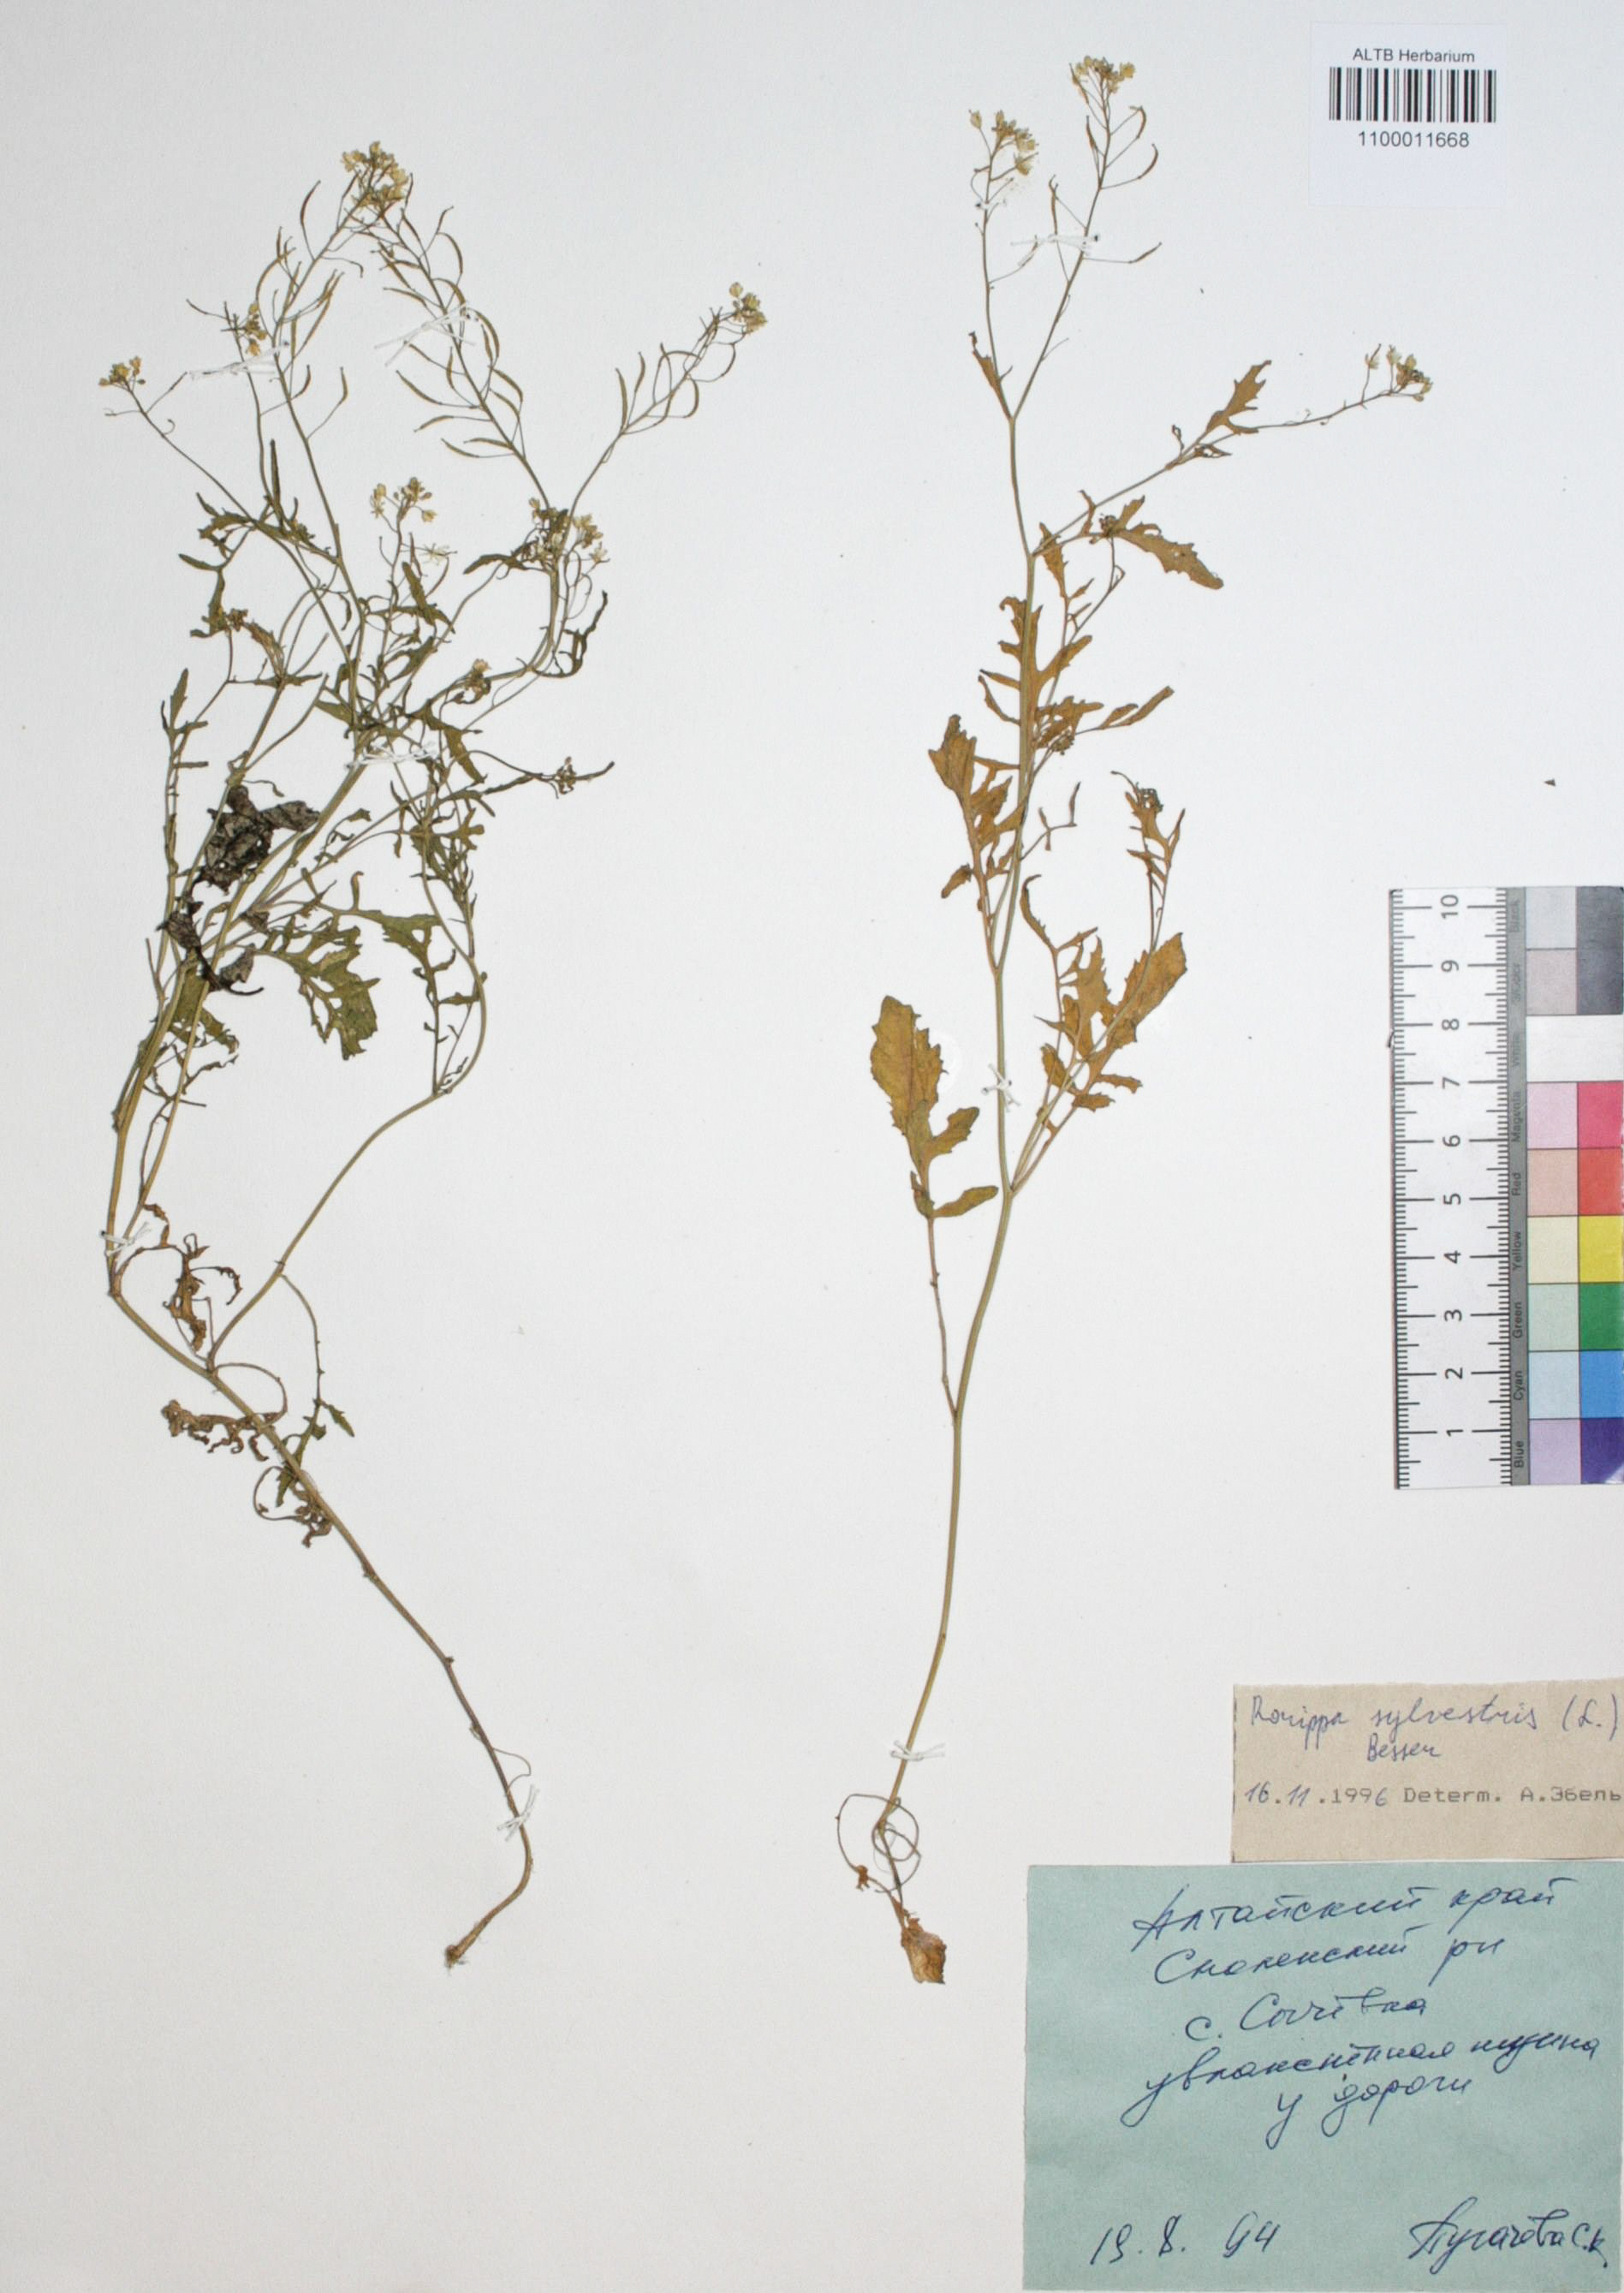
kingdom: Plantae
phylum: Tracheophyta
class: Magnoliopsida
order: Brassicales
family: Brassicaceae
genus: Rorippa
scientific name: Rorippa sylvestris
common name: Creeping yellowcress
